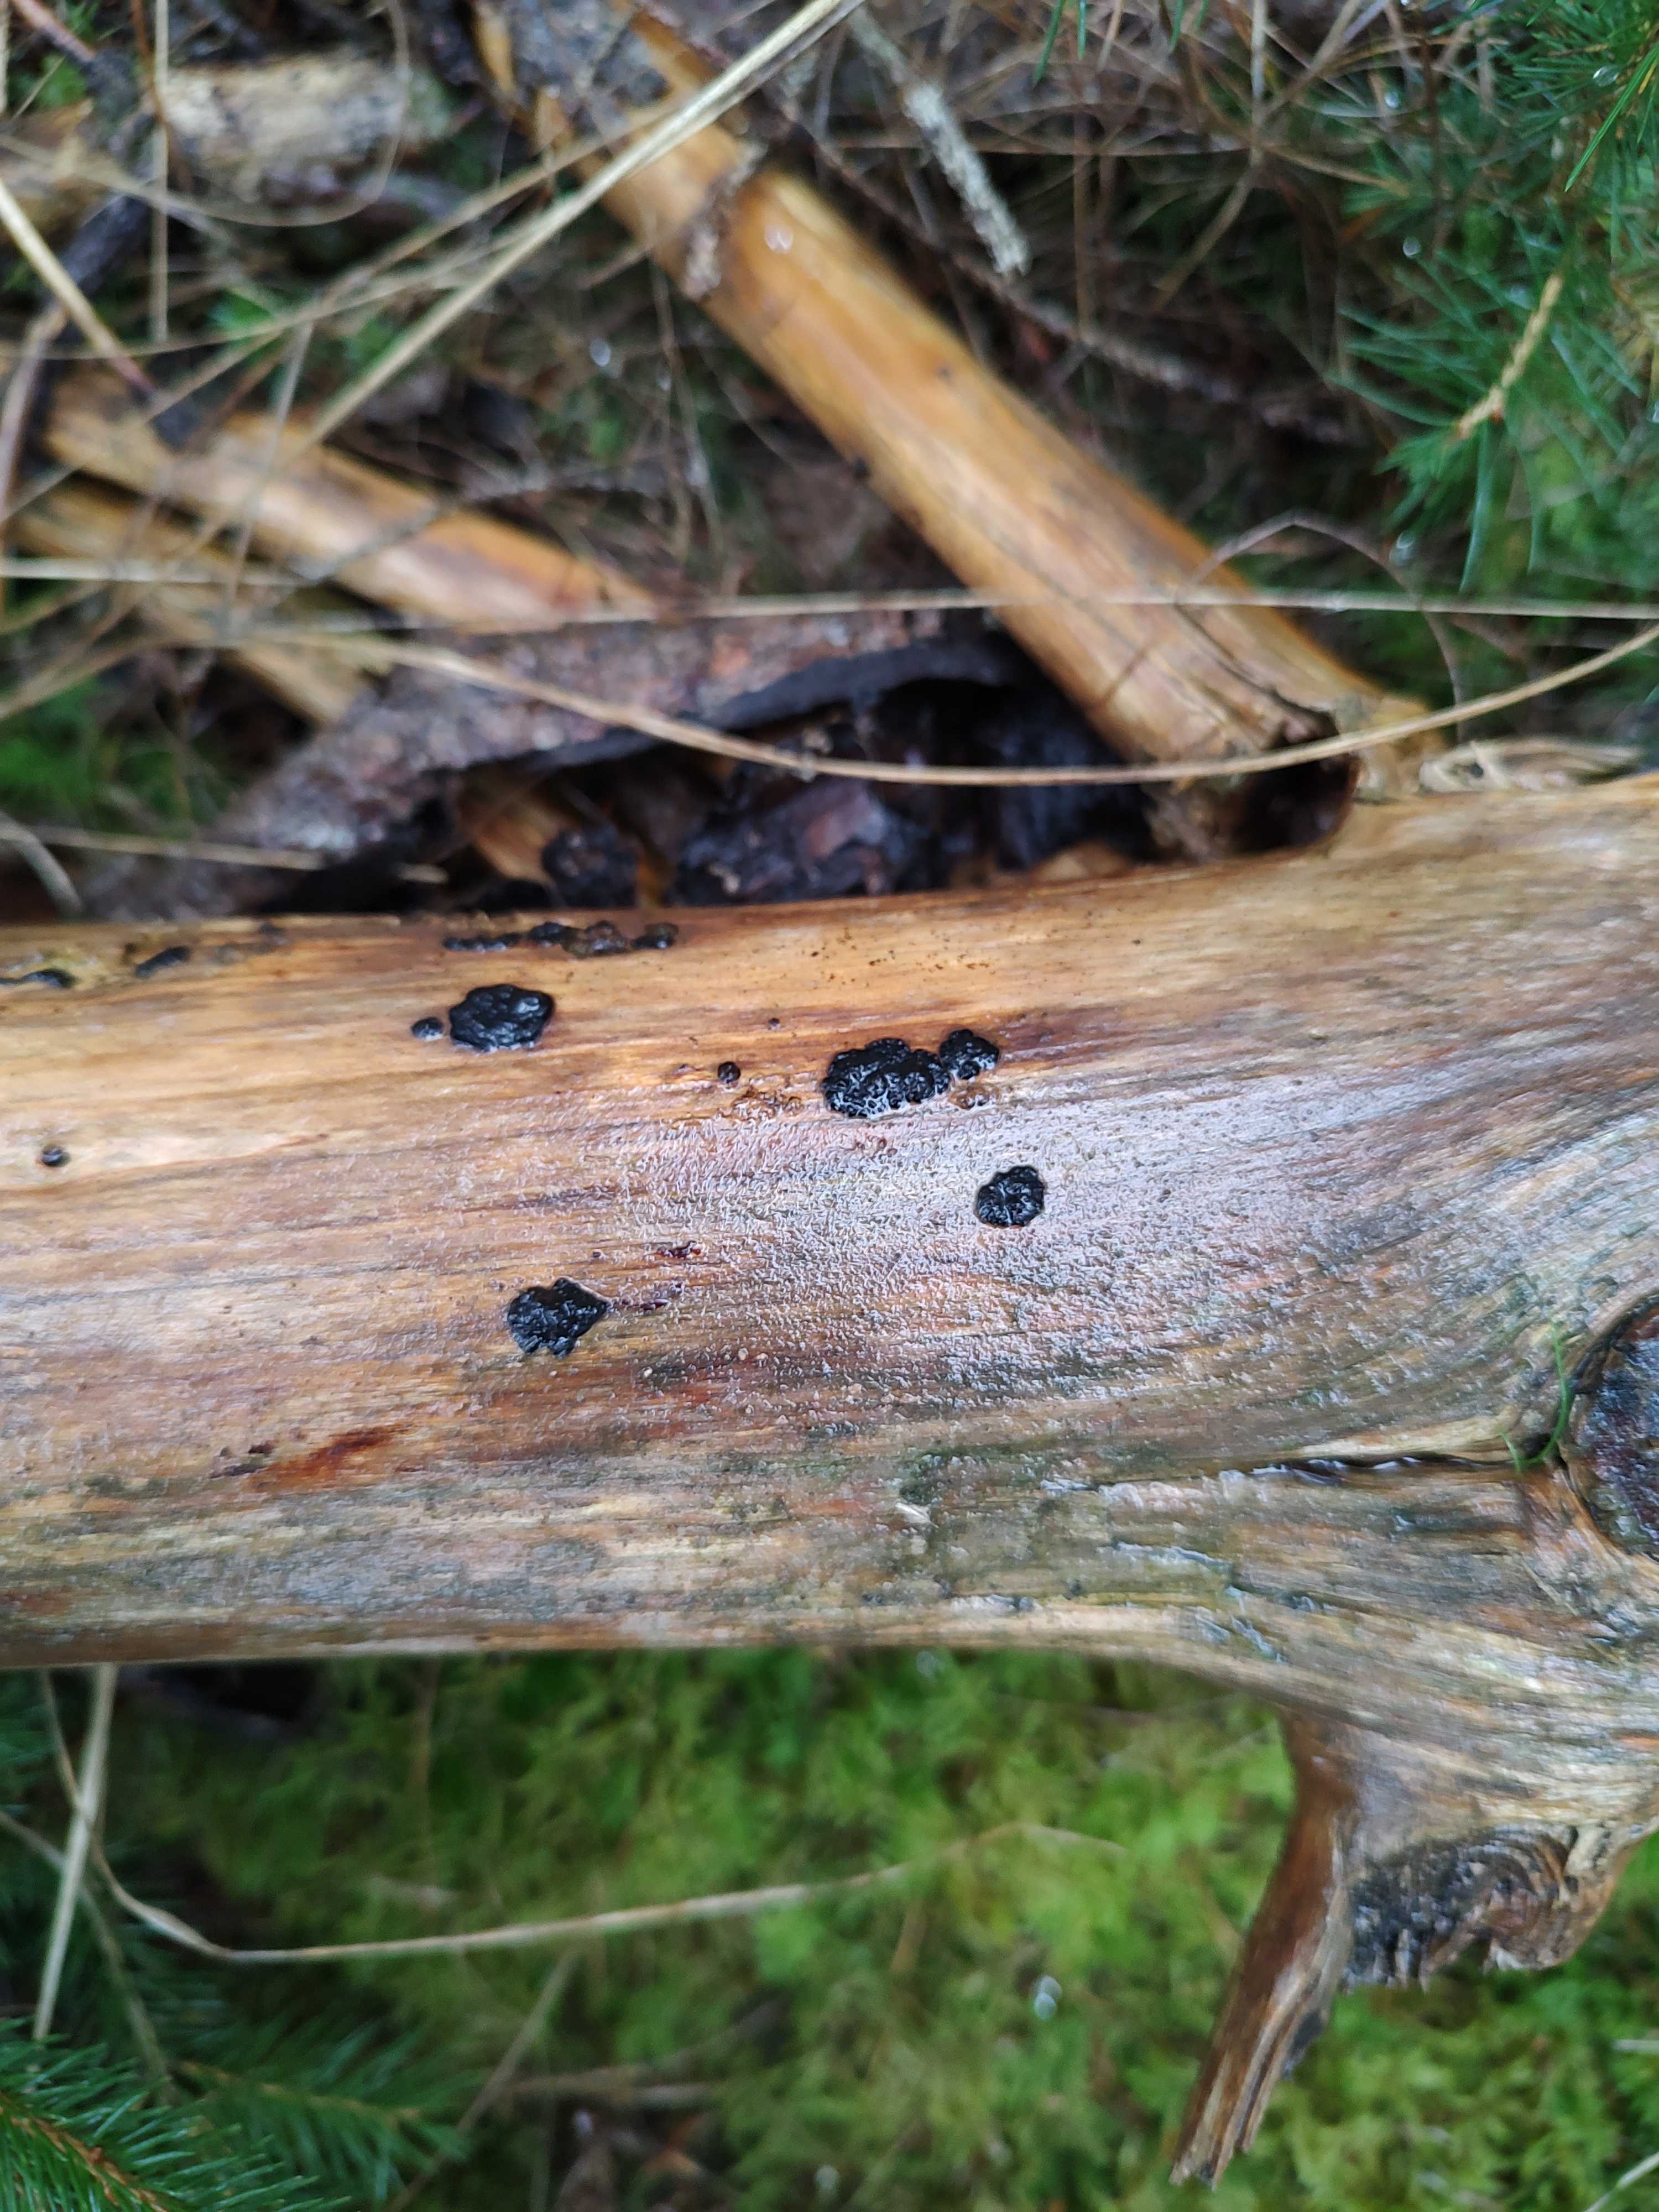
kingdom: Fungi
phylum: Basidiomycota
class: Agaricomycetes
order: Auriculariales
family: Auriculariaceae
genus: Exidia
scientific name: Exidia pithya
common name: gran-bævretop
